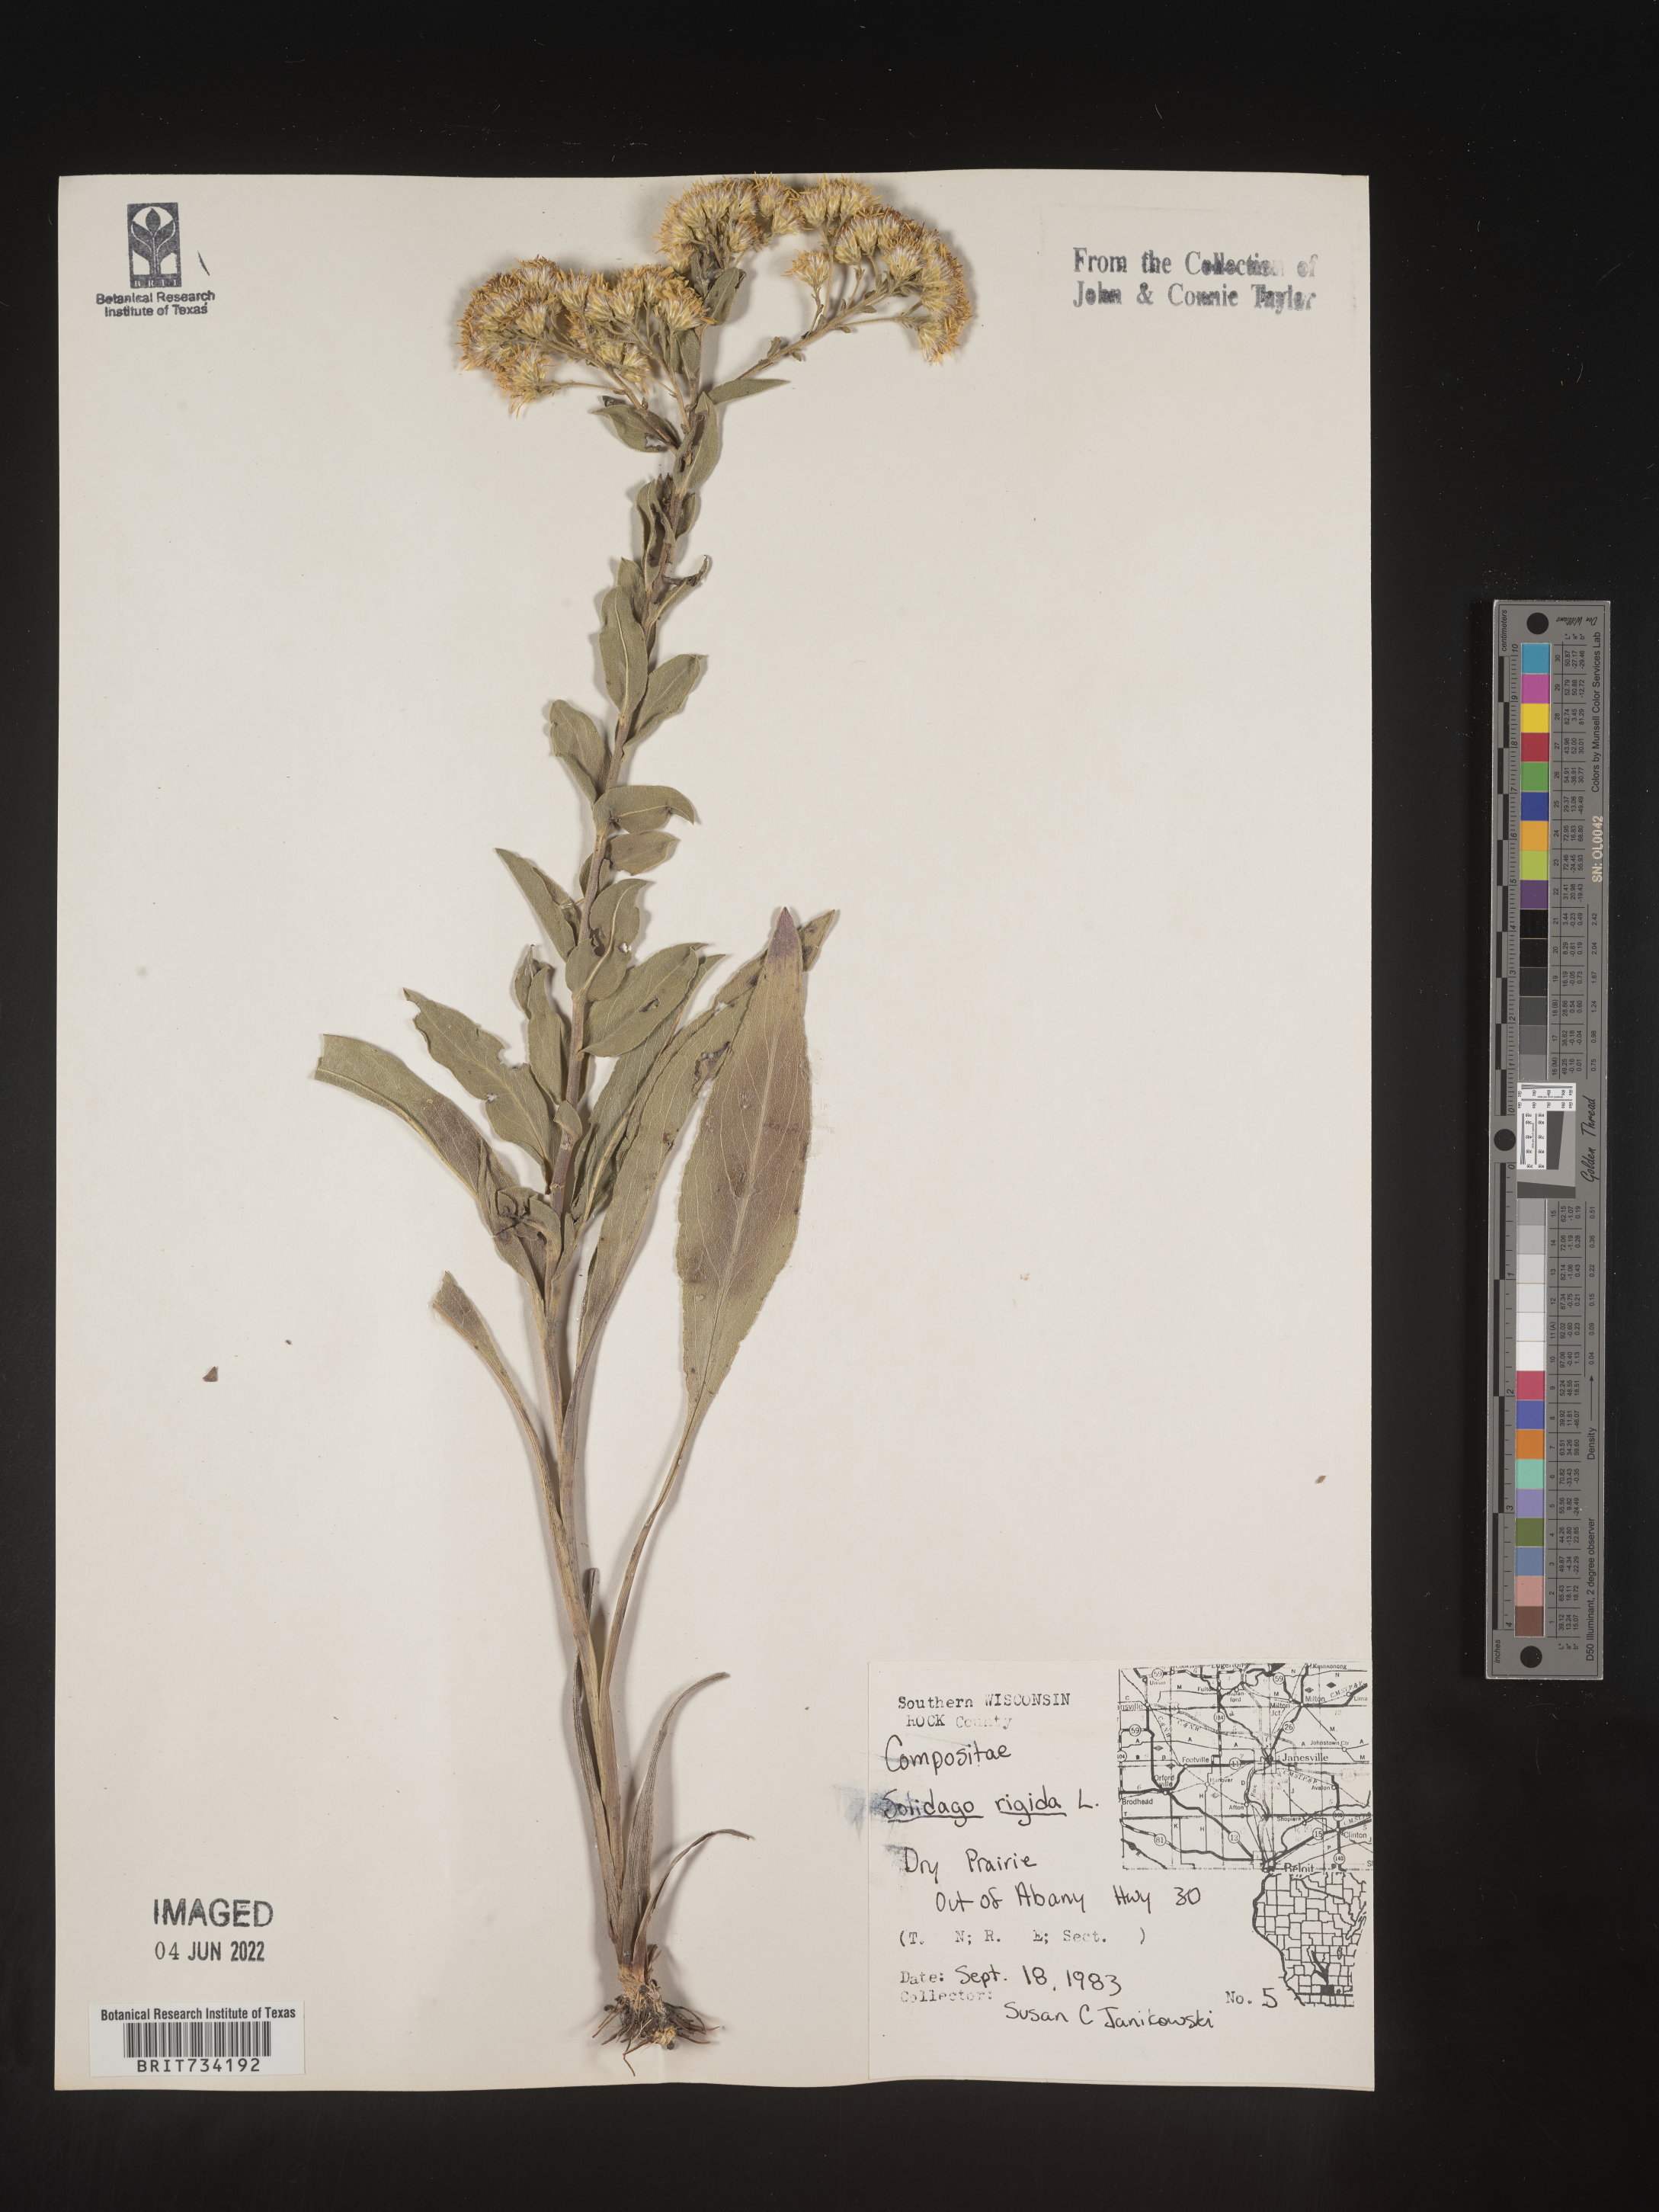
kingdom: Plantae
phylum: Tracheophyta
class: Magnoliopsida
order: Asterales
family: Asteraceae
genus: Solidago
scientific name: Solidago rigida
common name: Rigid goldenrod
